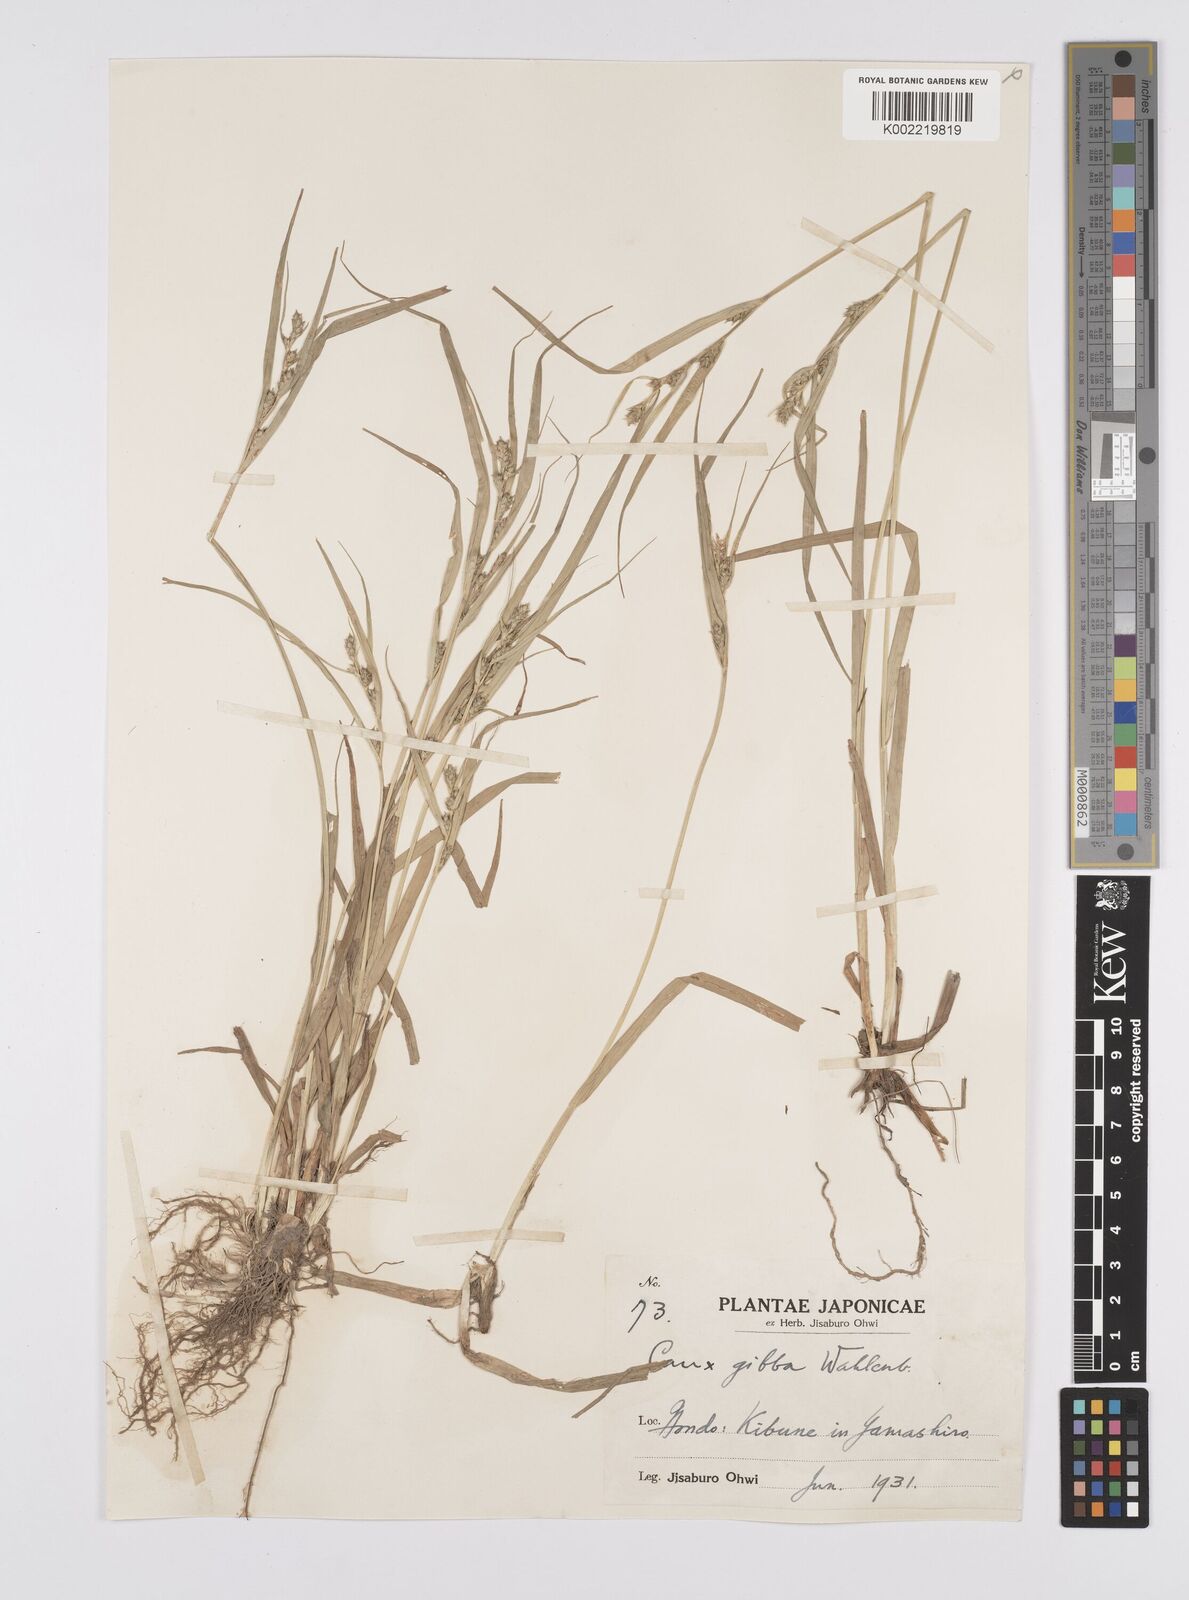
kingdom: Plantae
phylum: Tracheophyta
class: Liliopsida
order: Poales
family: Cyperaceae
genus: Carex
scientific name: Carex gibba
